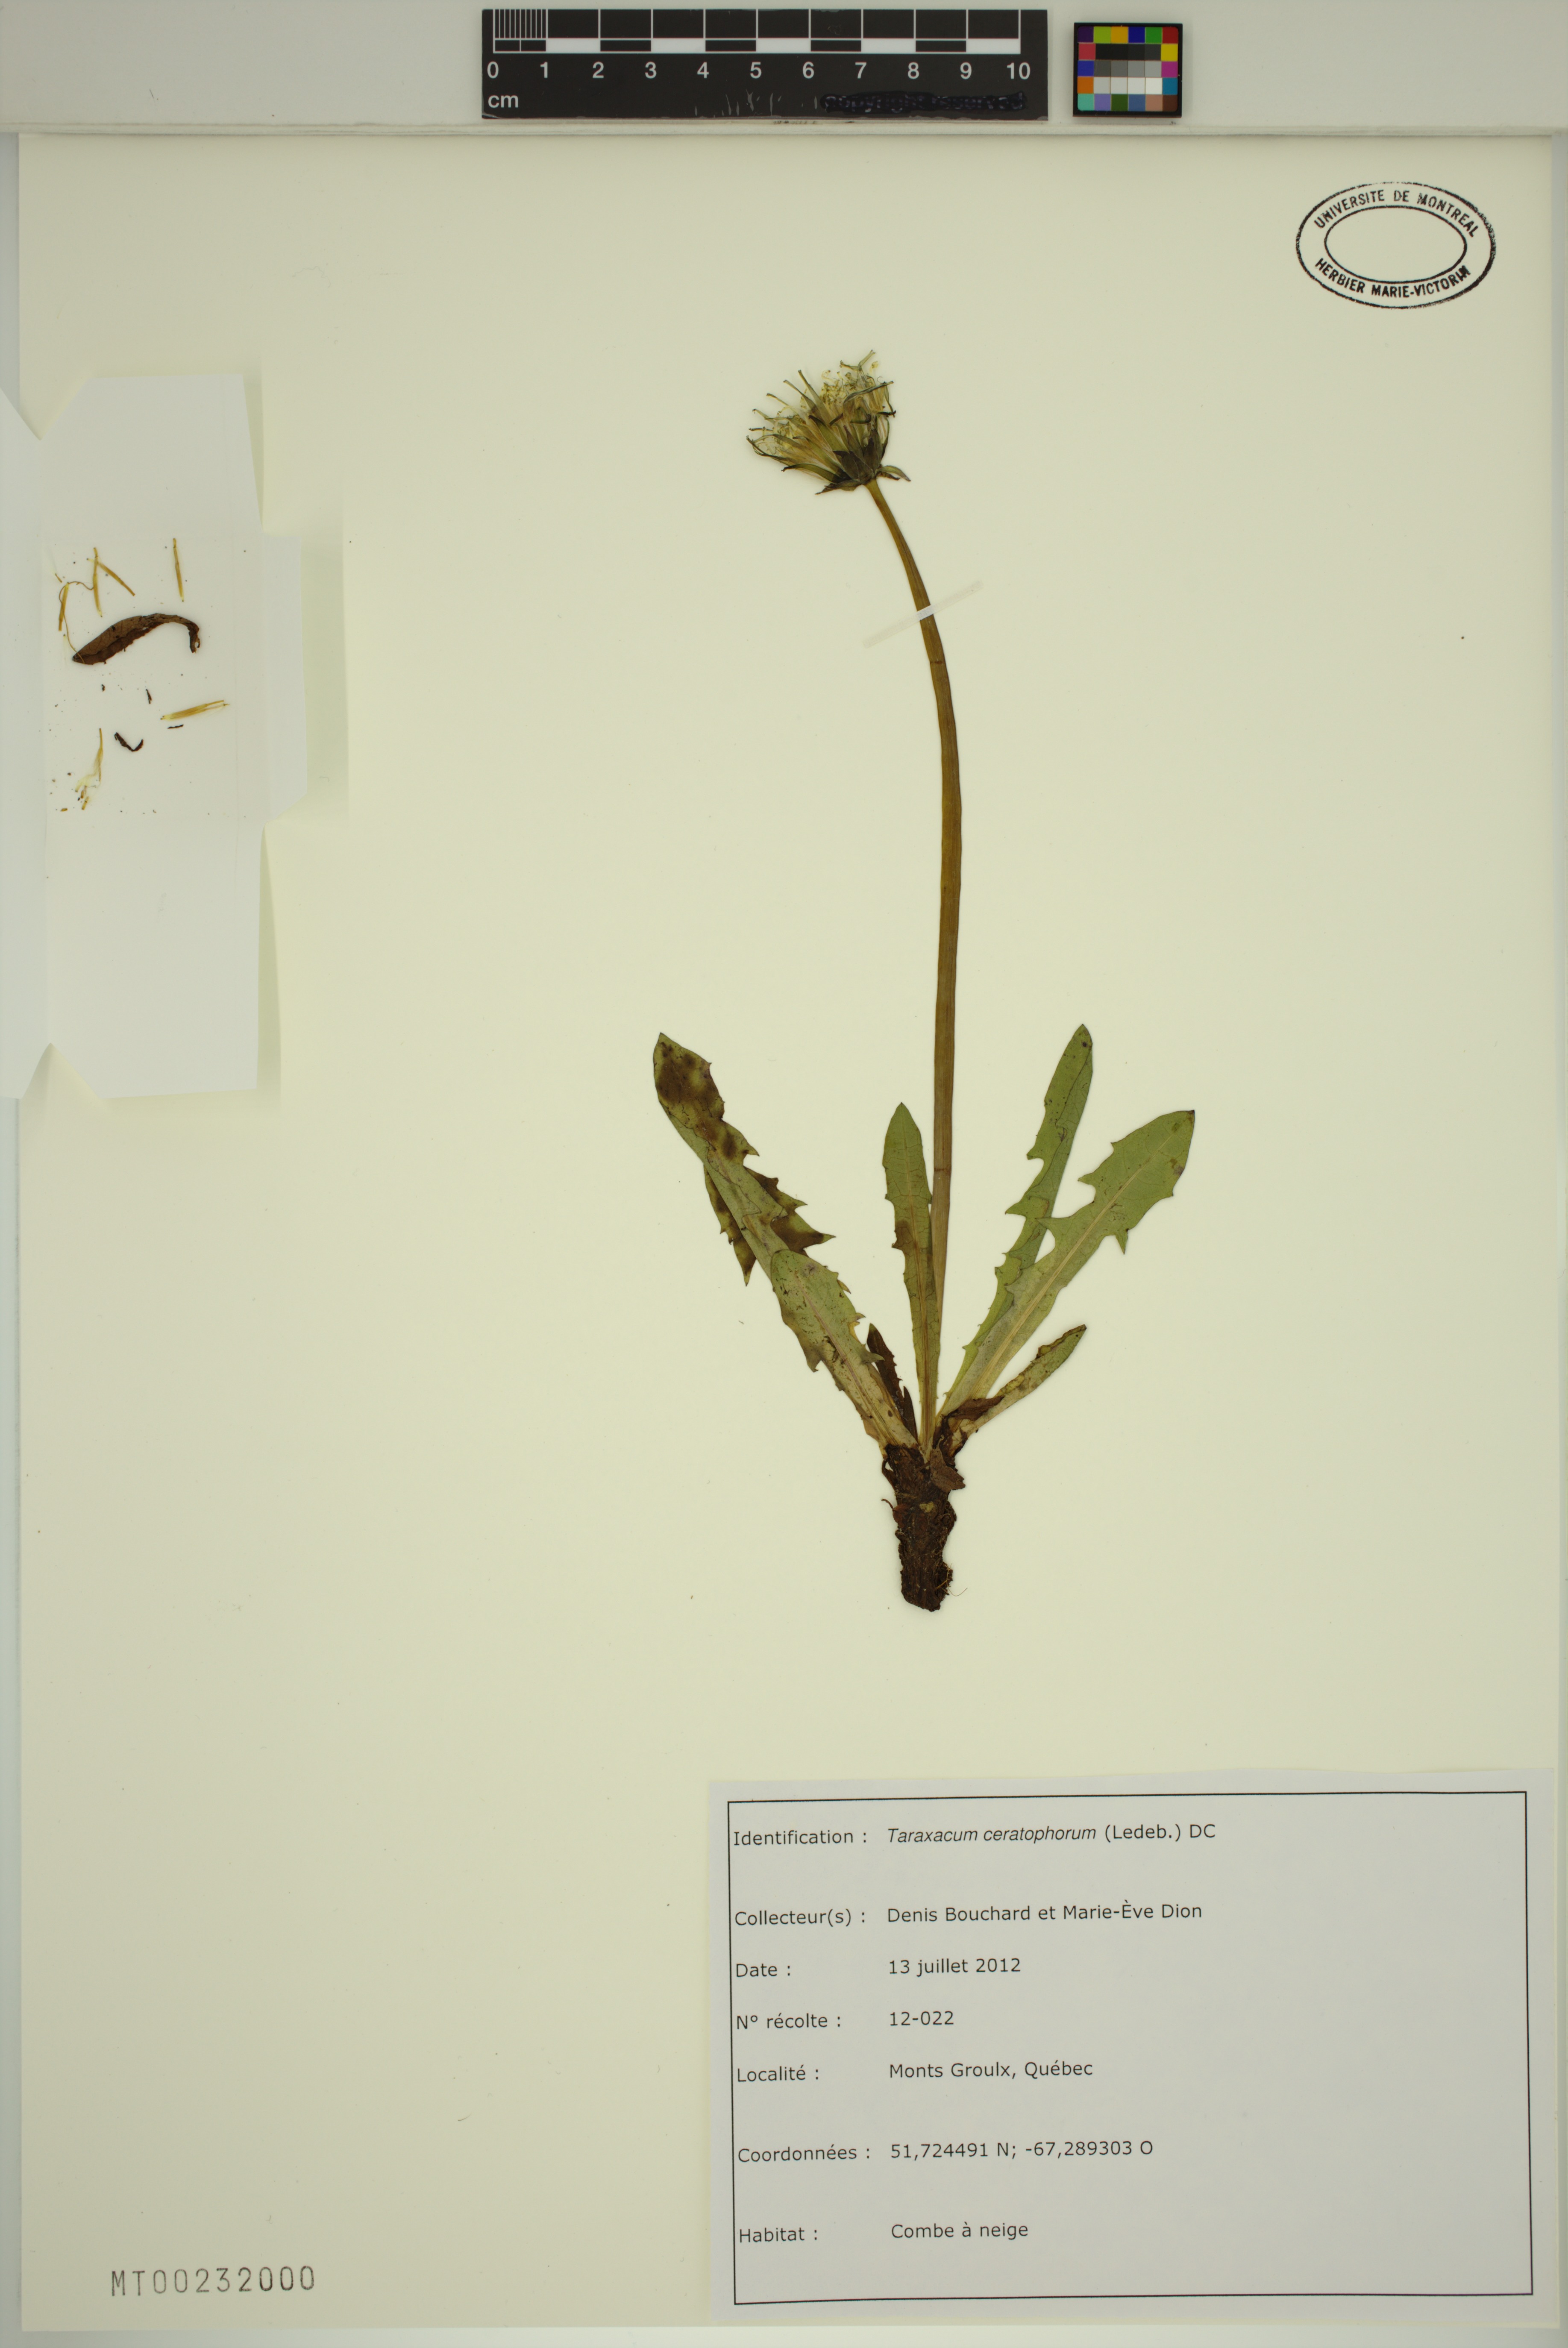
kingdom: Plantae
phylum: Tracheophyta
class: Magnoliopsida
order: Asterales
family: Asteraceae
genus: Taraxacum
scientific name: Taraxacum ceratophorum
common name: Horn-bearing dandelion
